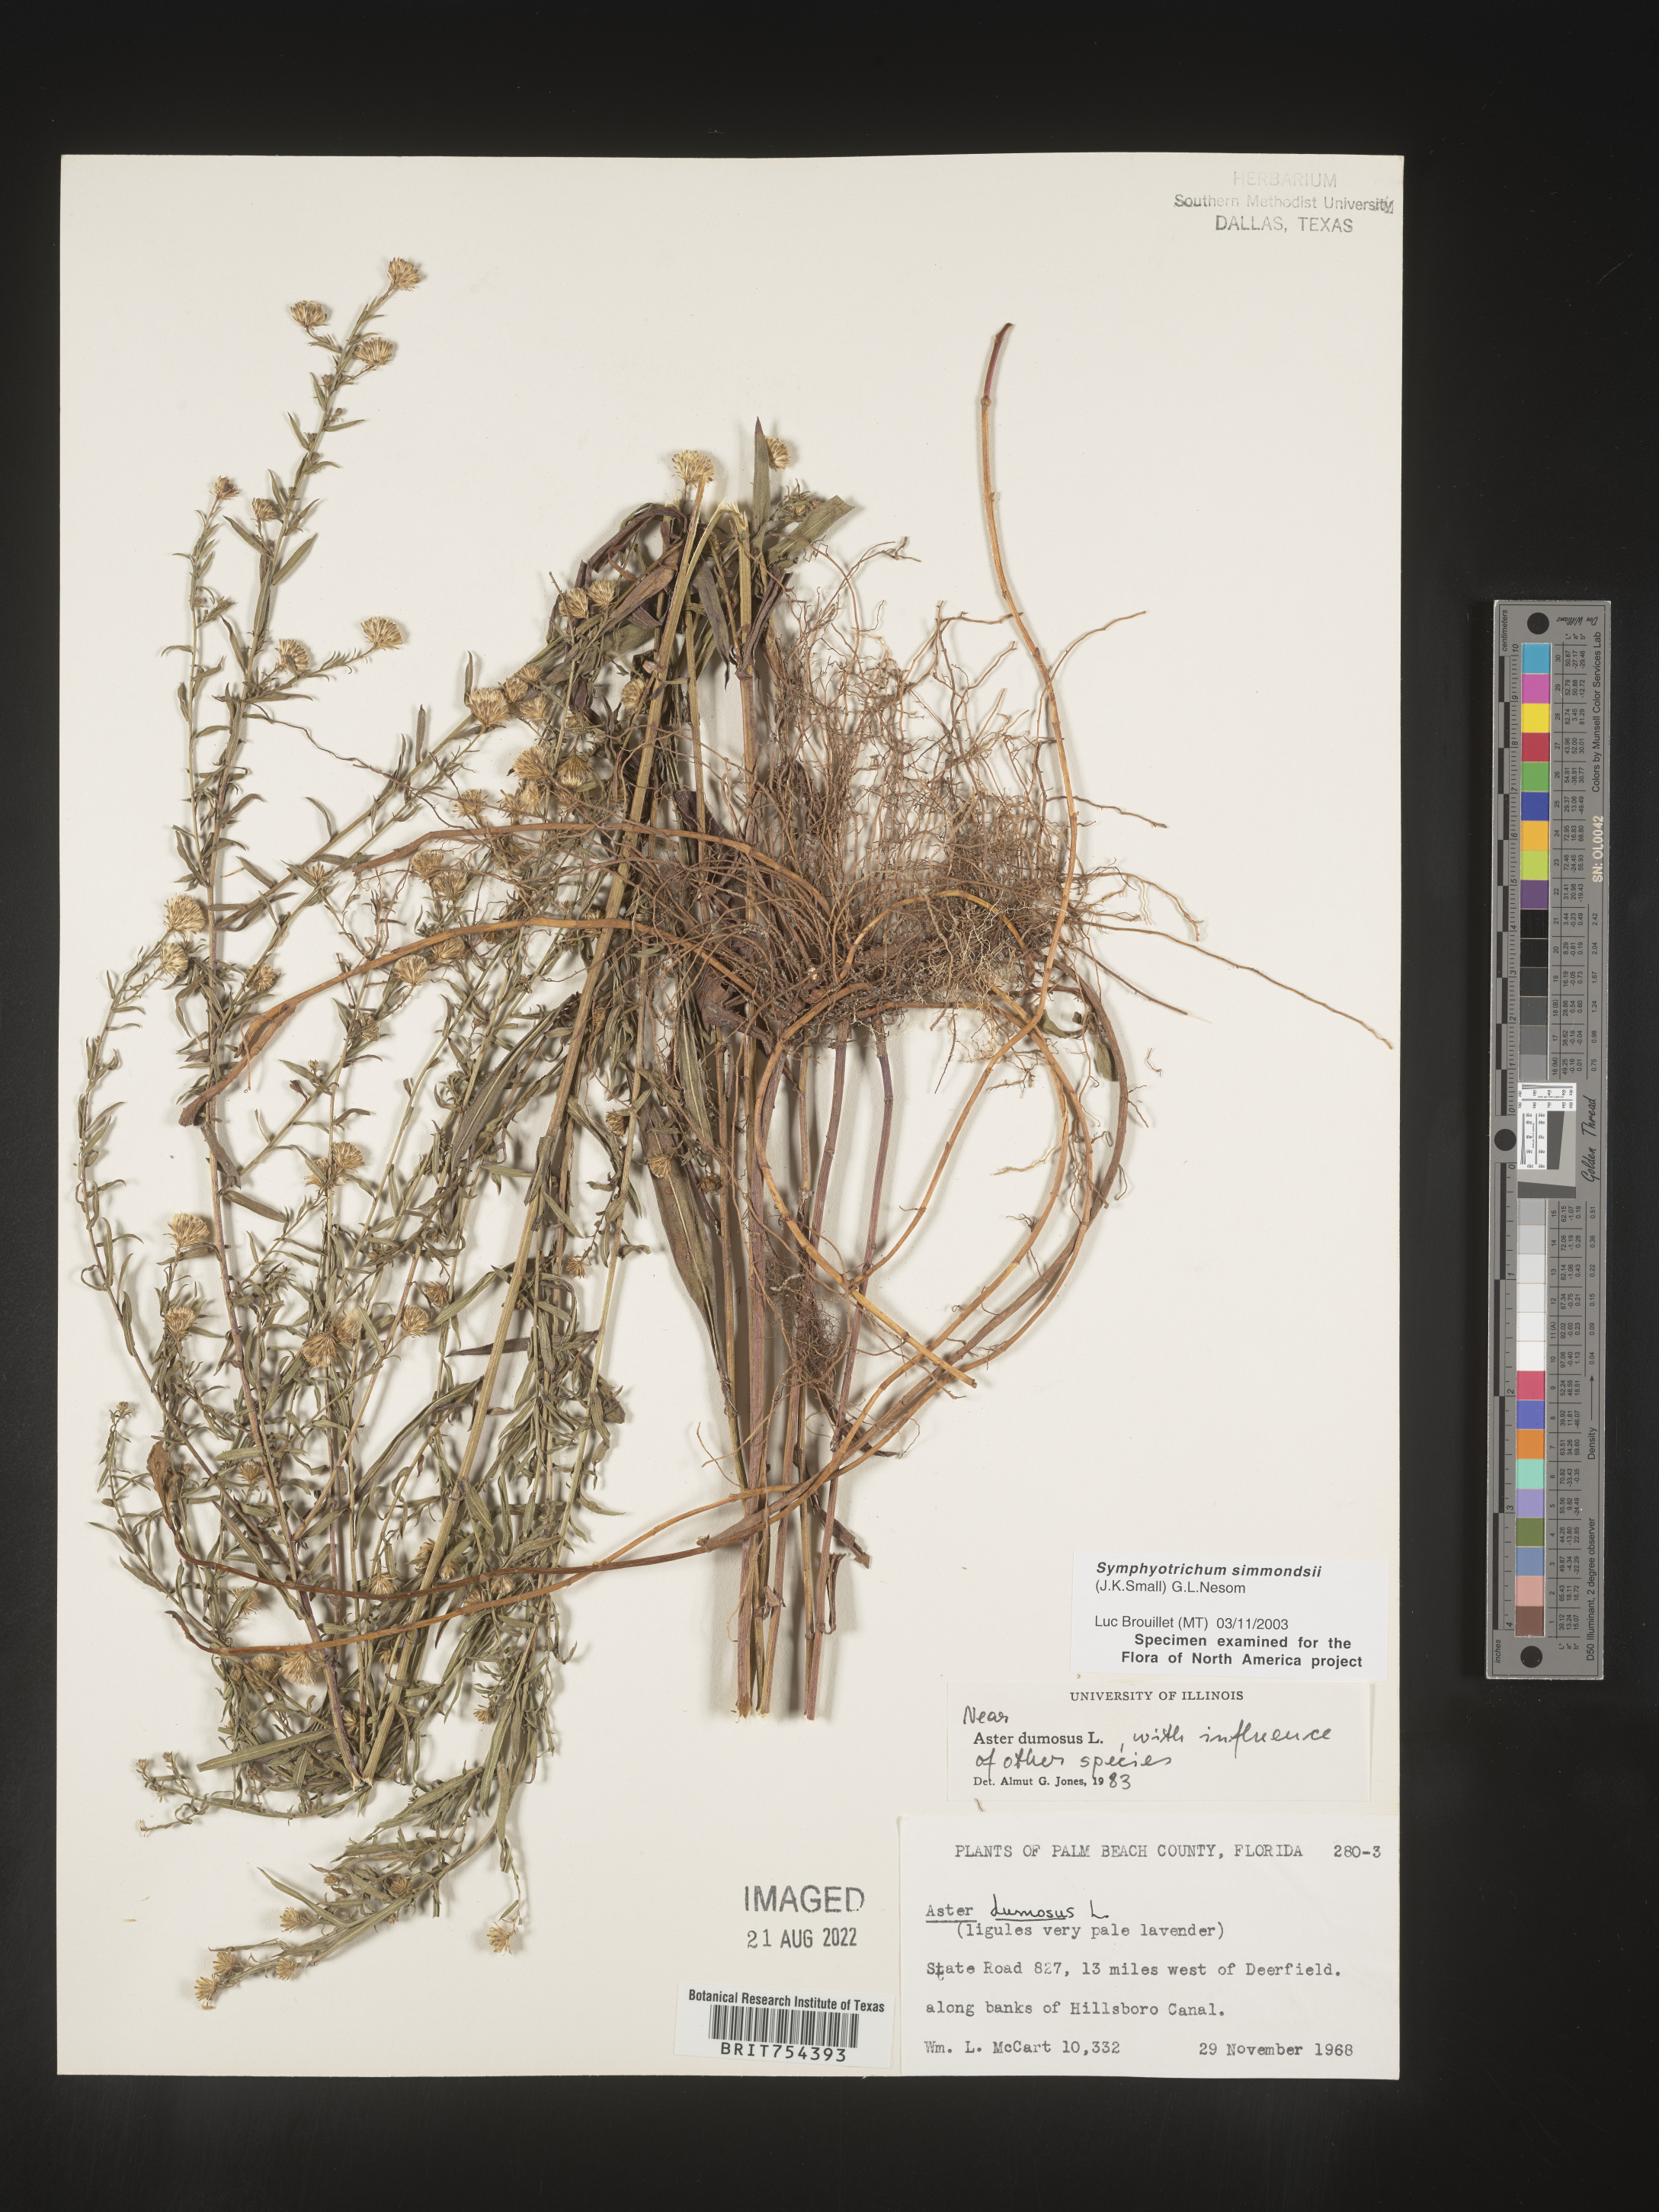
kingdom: Plantae
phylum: Tracheophyta
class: Magnoliopsida
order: Asterales
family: Asteraceae
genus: Symphyotrichum
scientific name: Symphyotrichum simmondsii
